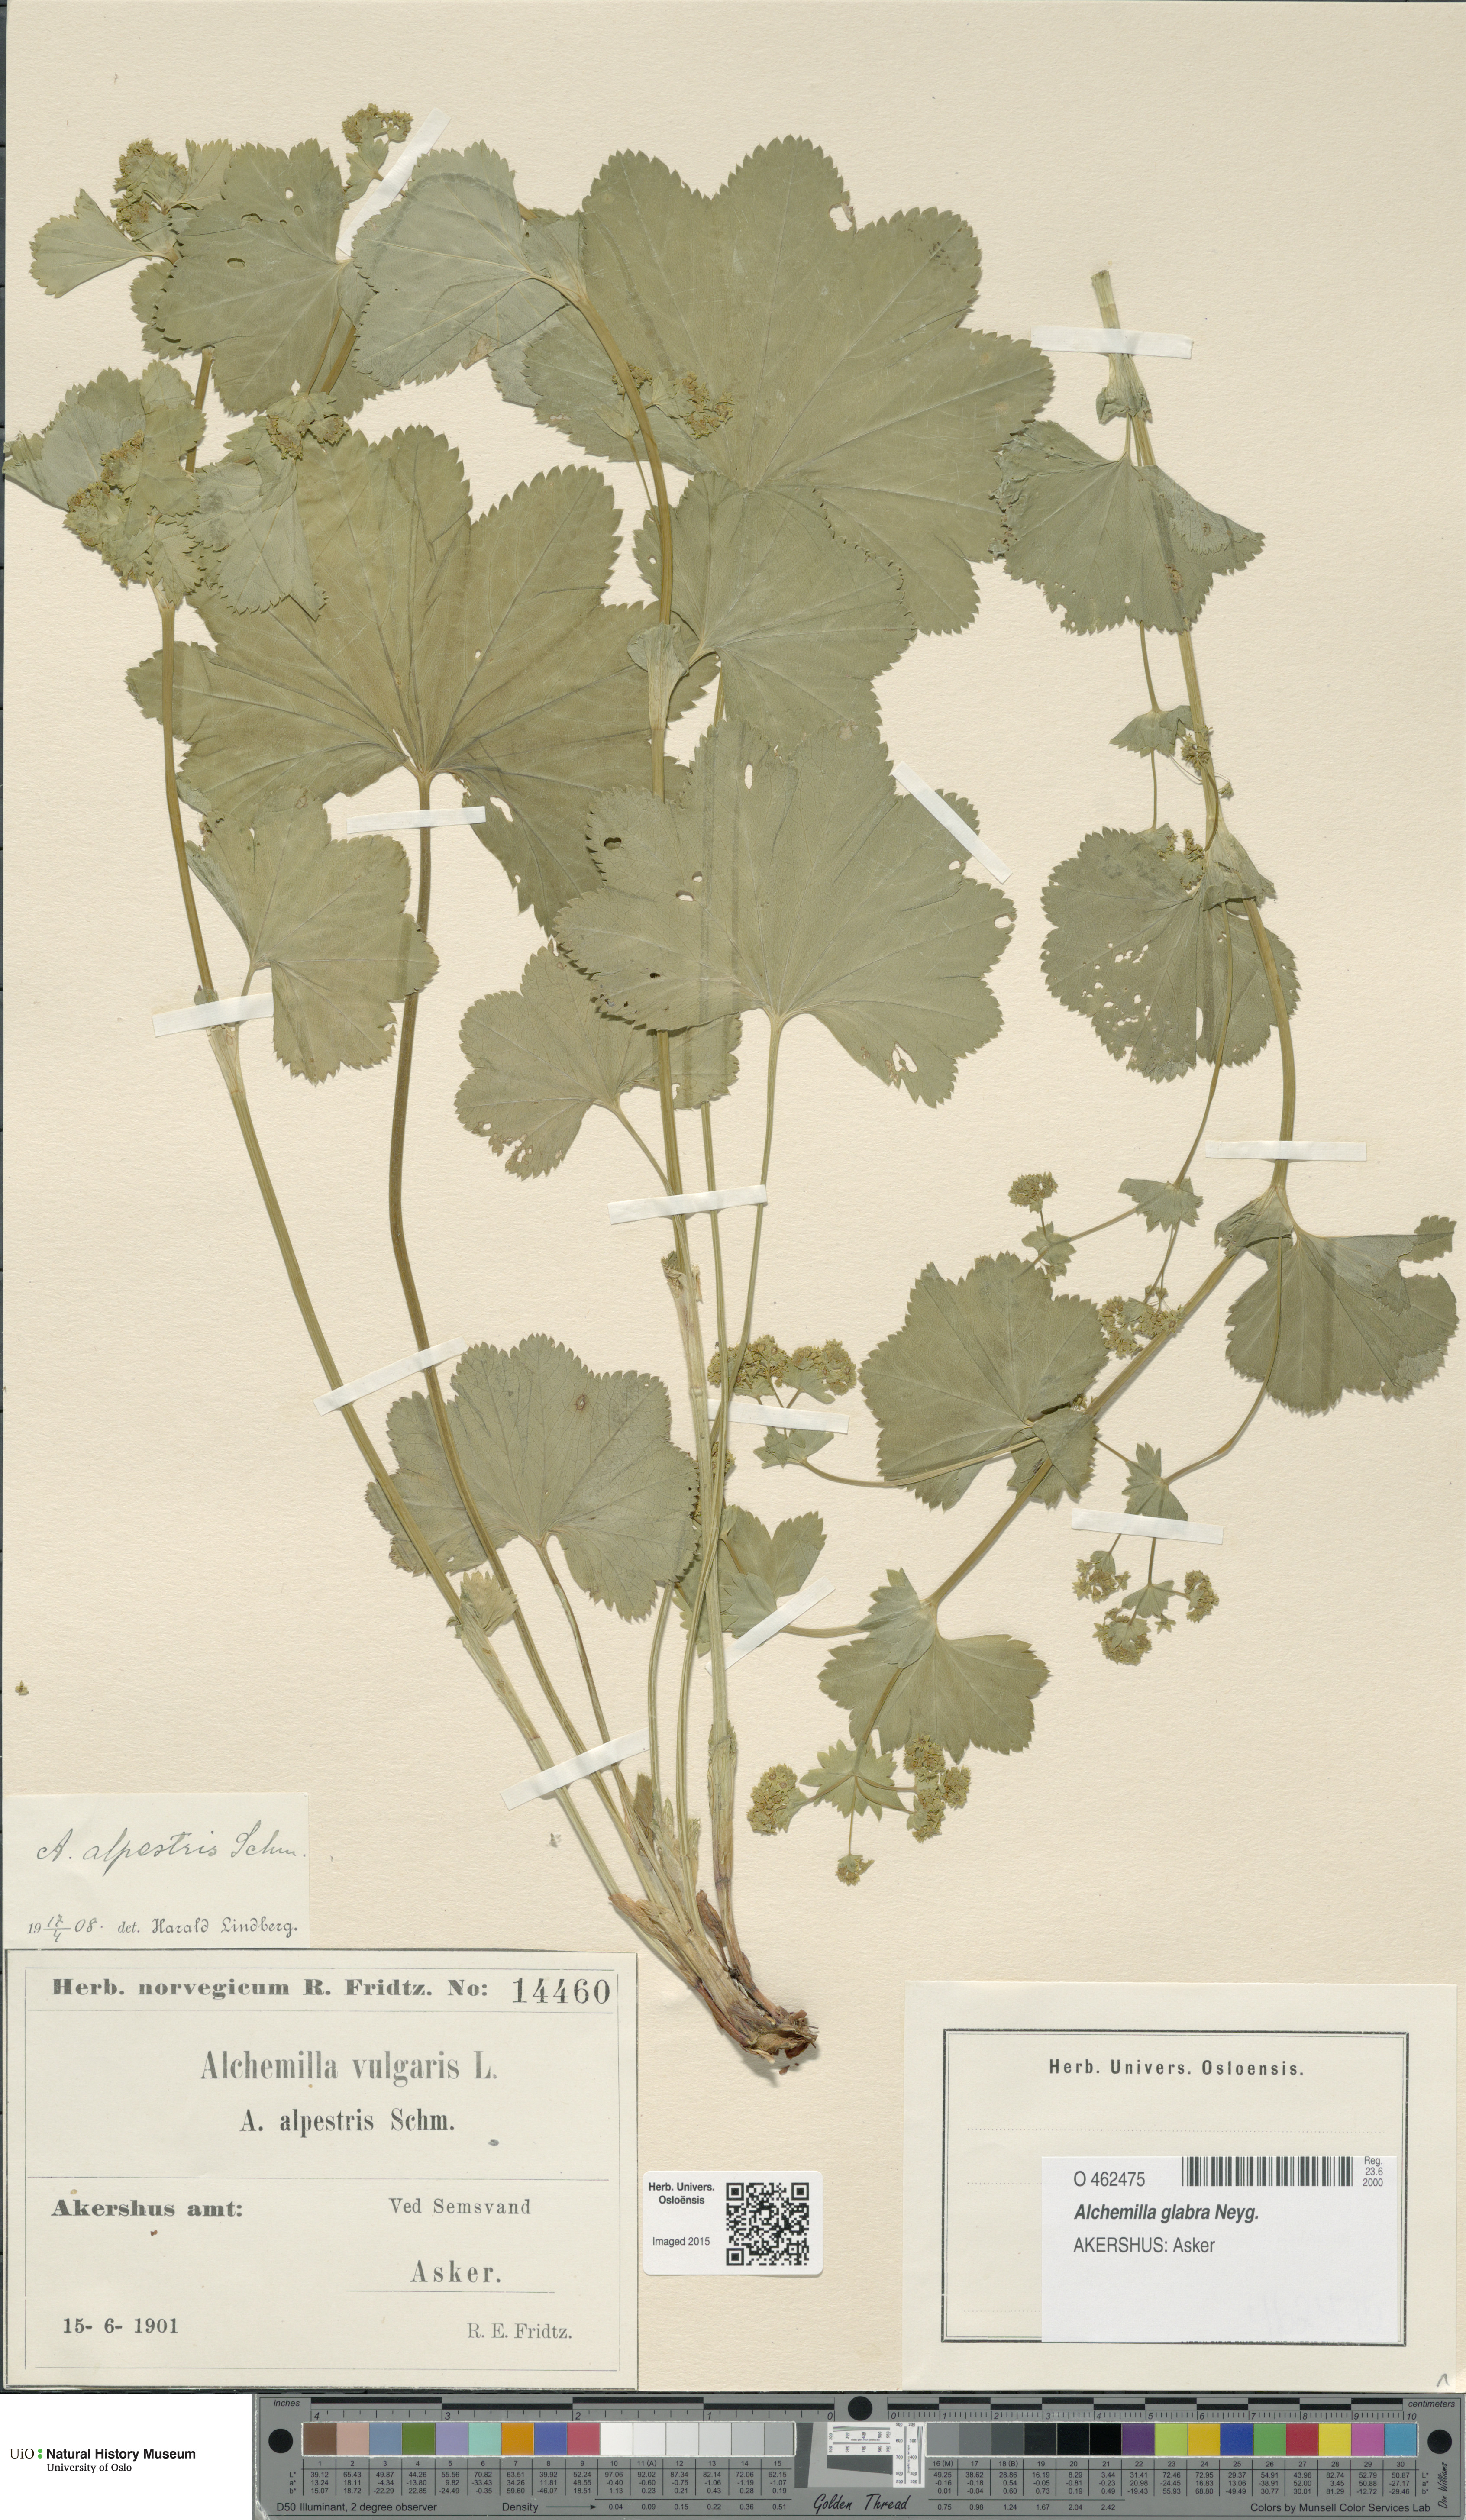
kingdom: Plantae
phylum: Tracheophyta
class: Magnoliopsida
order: Rosales
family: Rosaceae
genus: Alchemilla
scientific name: Alchemilla glabra
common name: Smooth lady's-mantle
